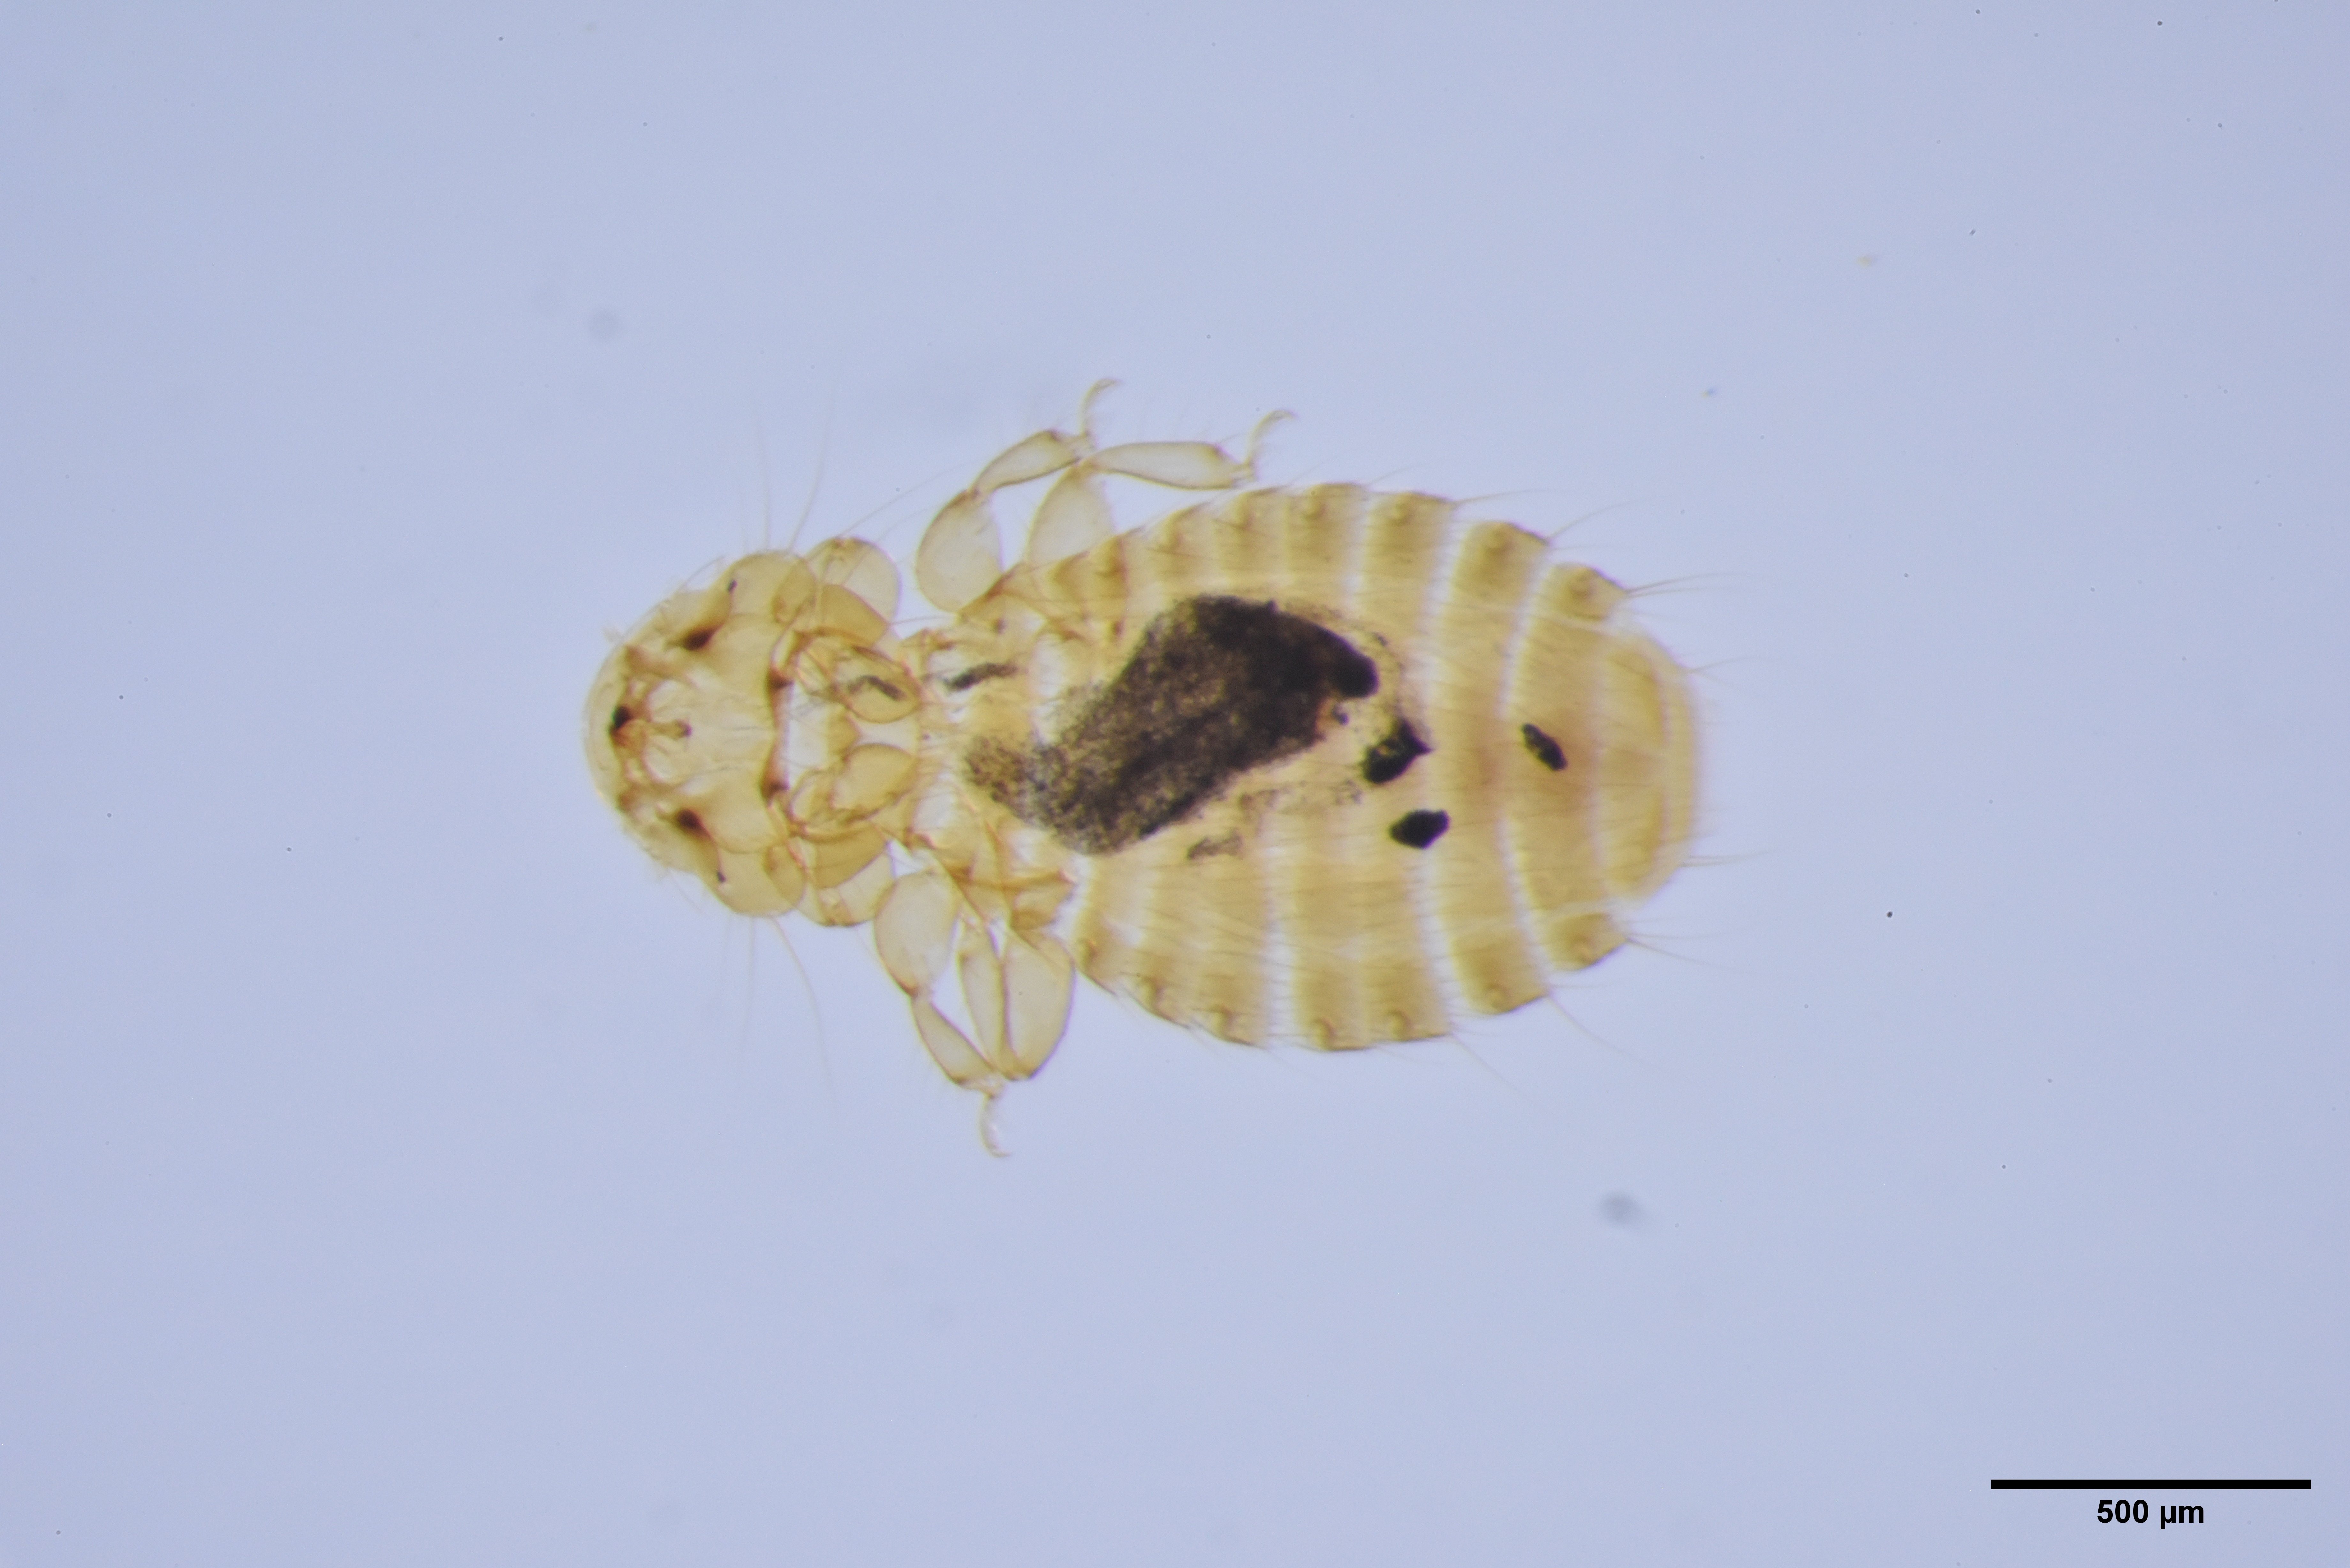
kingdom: Animalia
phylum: Arthropoda
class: Insecta
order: Psocodea
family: Ancistronidae
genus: Austromenopon
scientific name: Austromenopon brevifimbriatum
